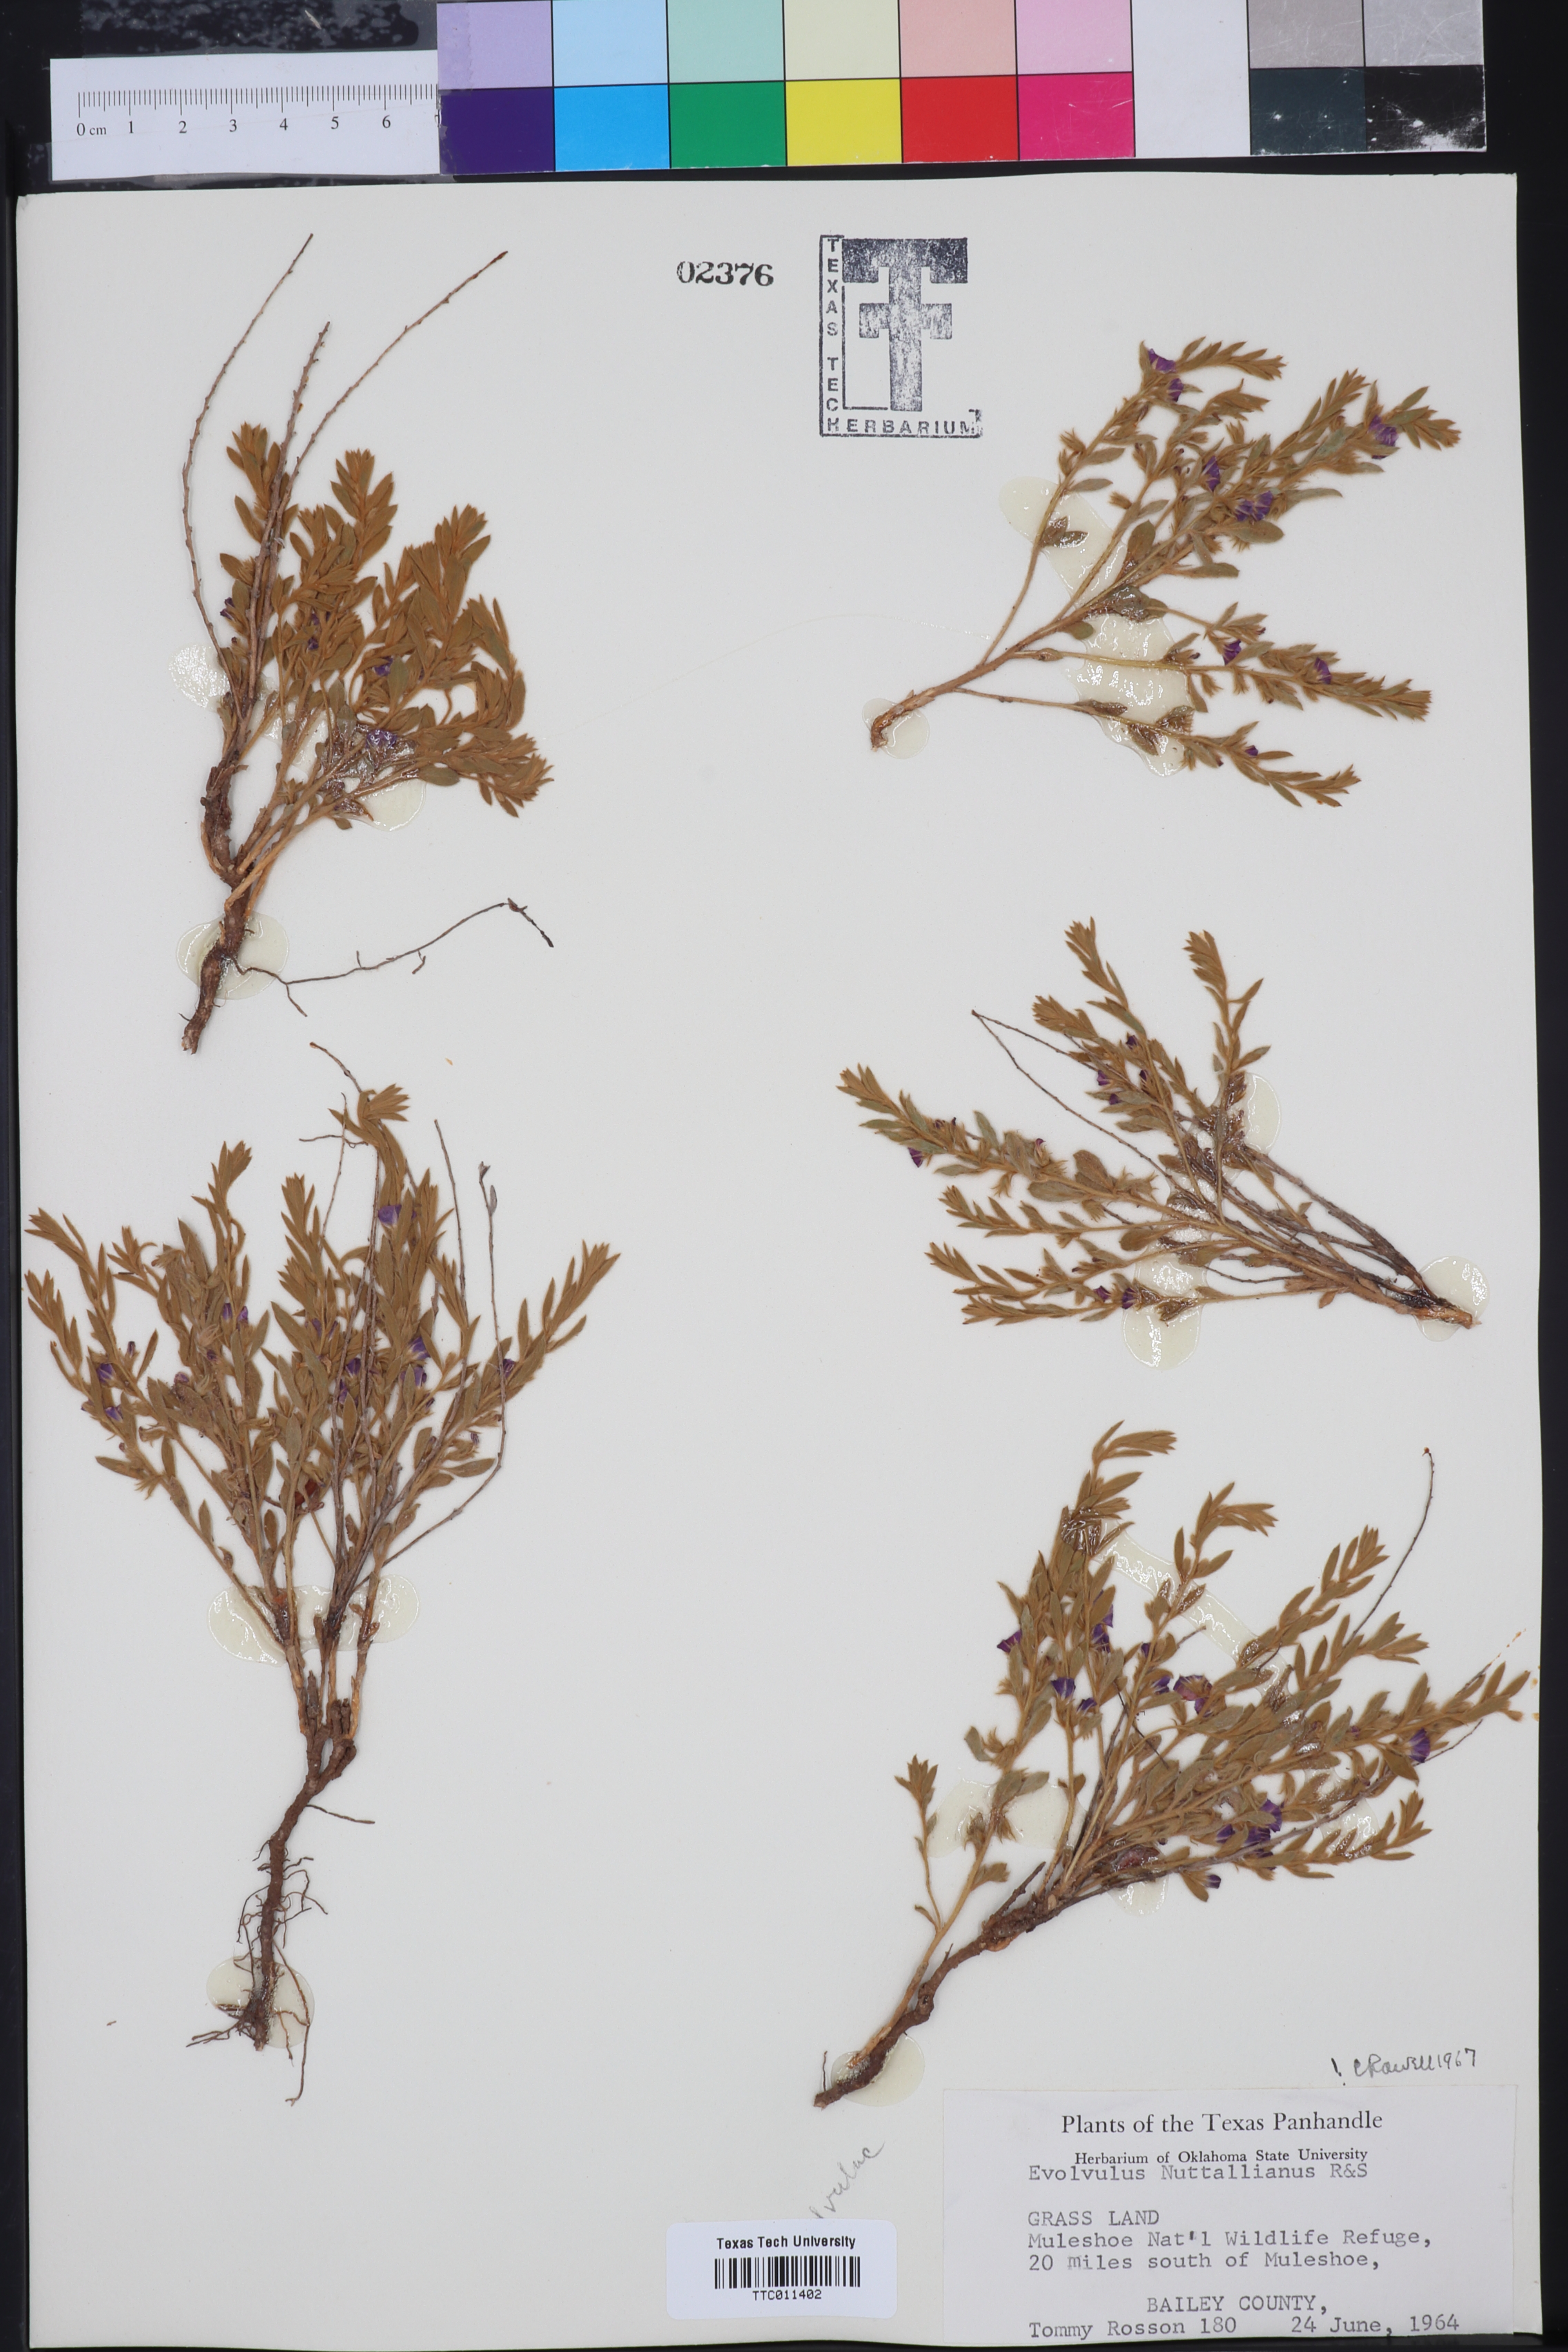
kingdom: Plantae
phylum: Tracheophyta
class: Magnoliopsida
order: Solanales
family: Convolvulaceae
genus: Evolvulus
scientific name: Evolvulus nuttallianus
